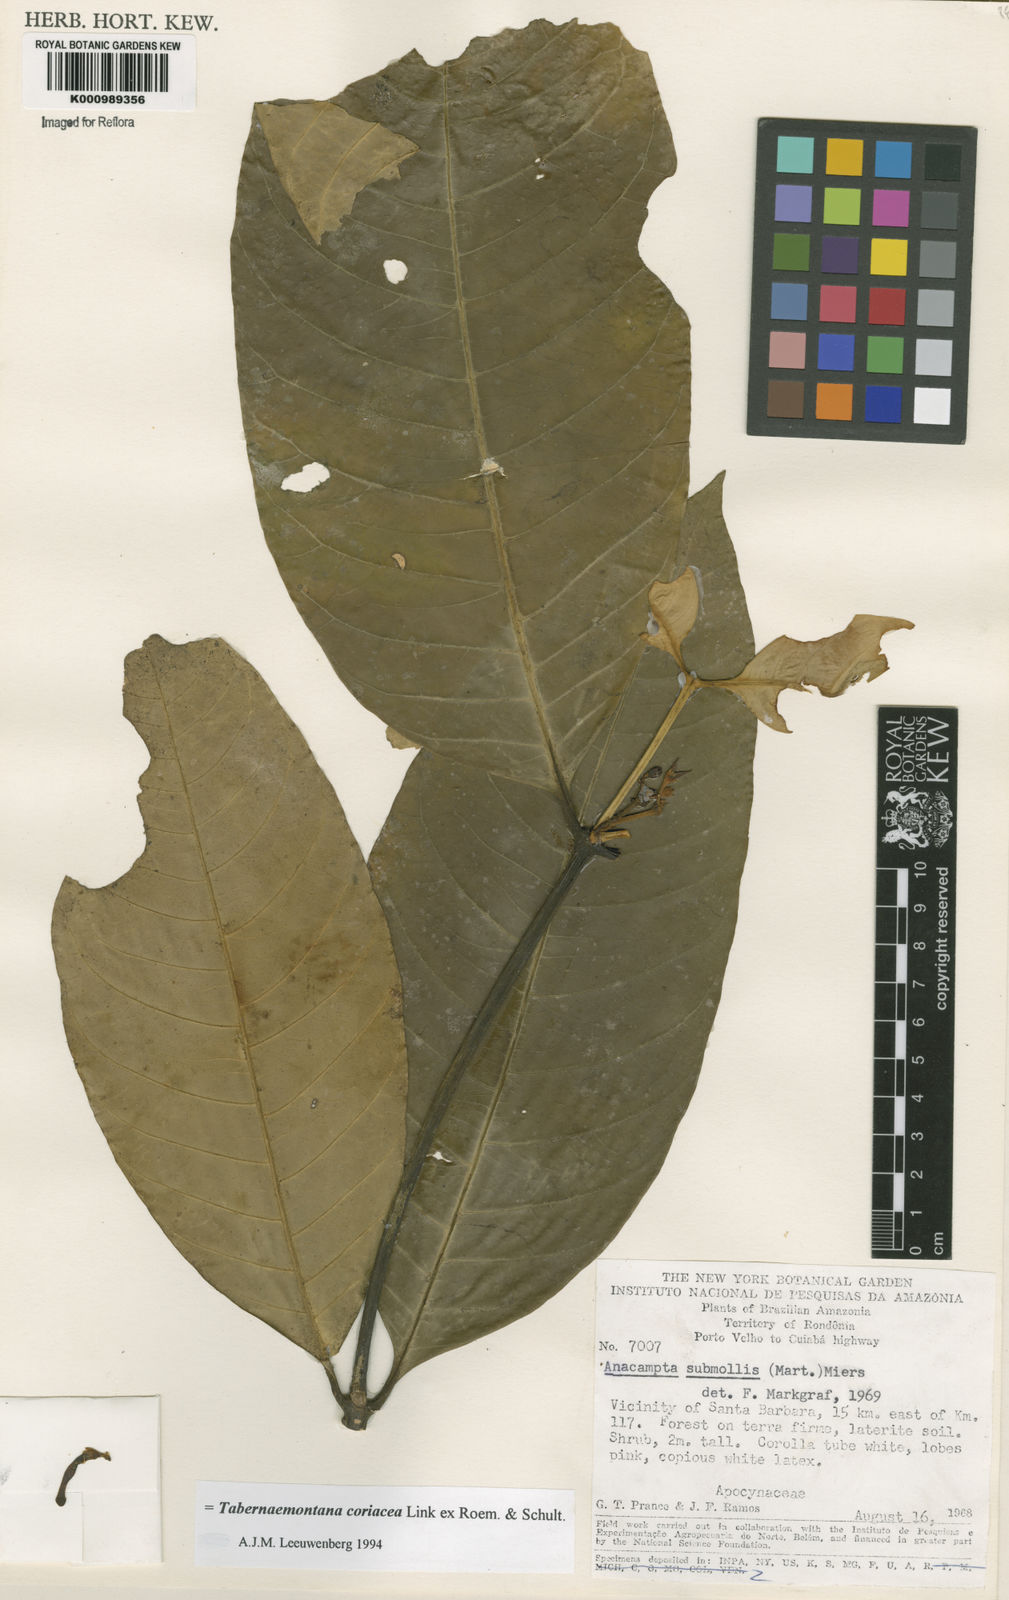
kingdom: Plantae
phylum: Tracheophyta
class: Magnoliopsida
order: Gentianales
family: Apocynaceae
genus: Tabernaemontana
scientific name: Tabernaemontana coriacea
